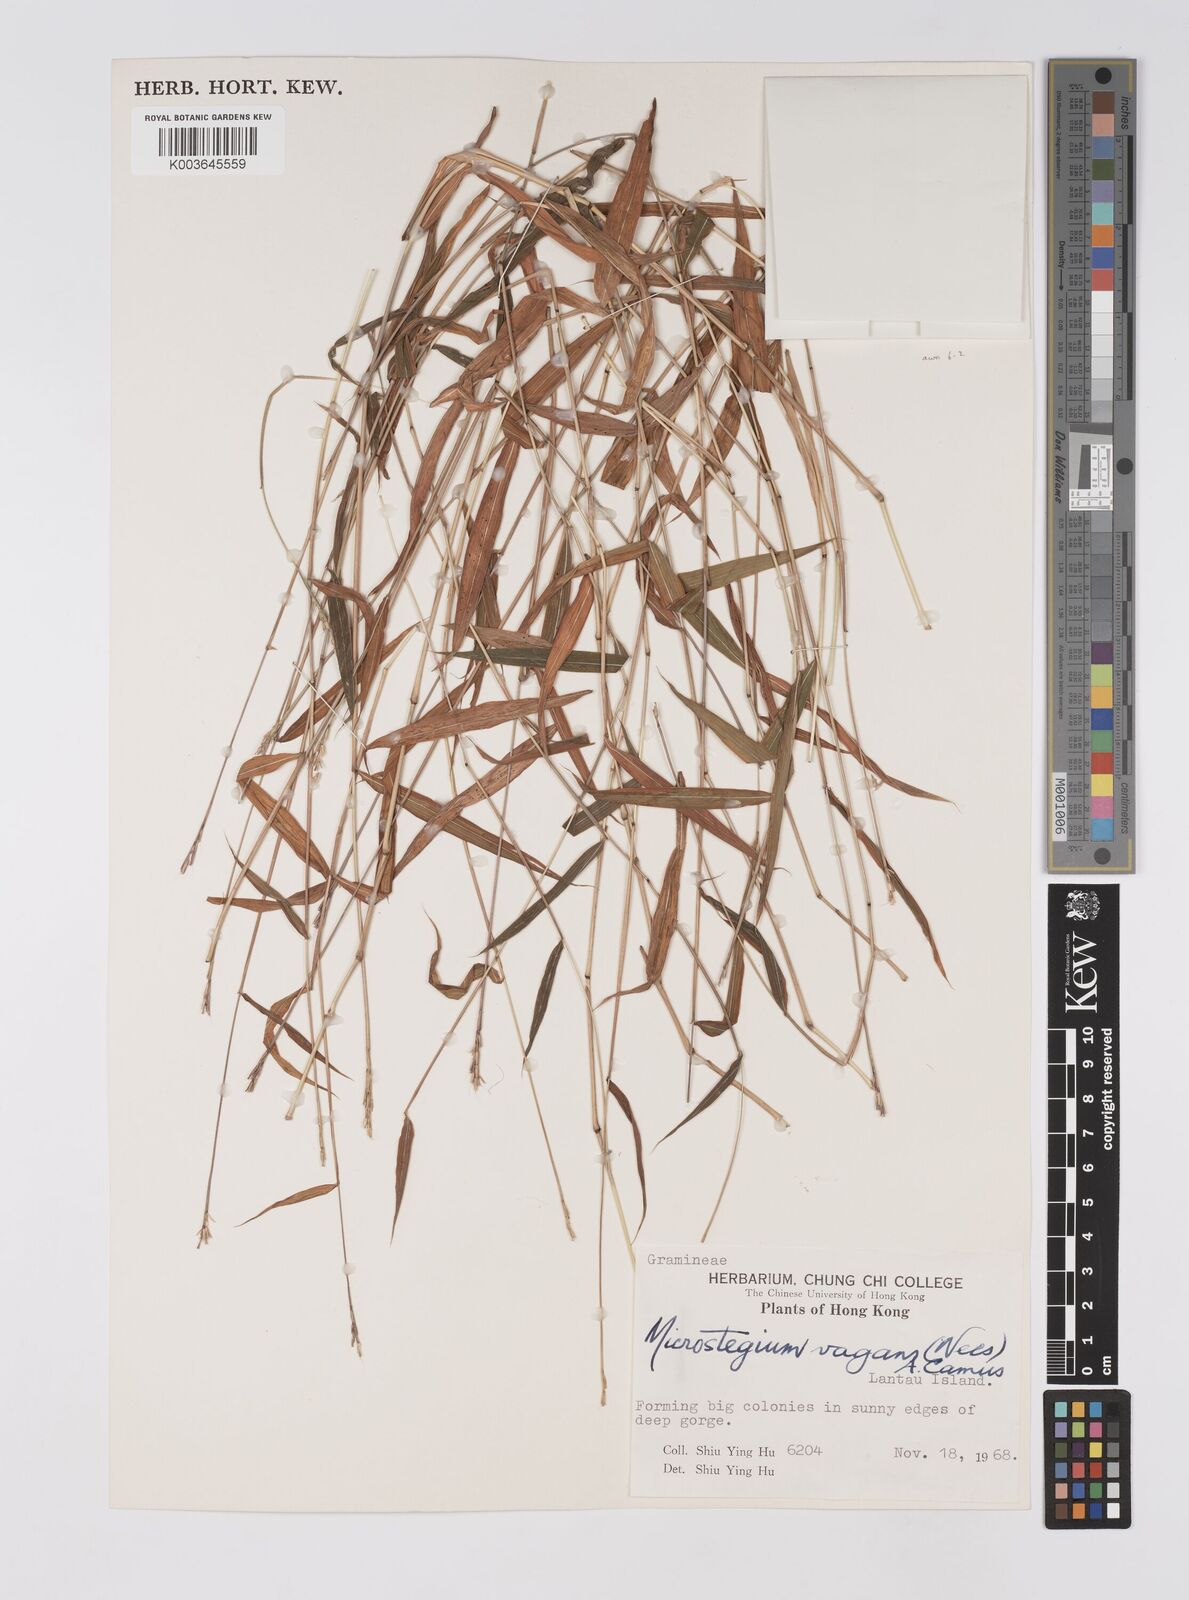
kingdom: Plantae
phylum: Tracheophyta
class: Liliopsida
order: Poales
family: Poaceae
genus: Microstegium
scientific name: Microstegium fasciculatum
